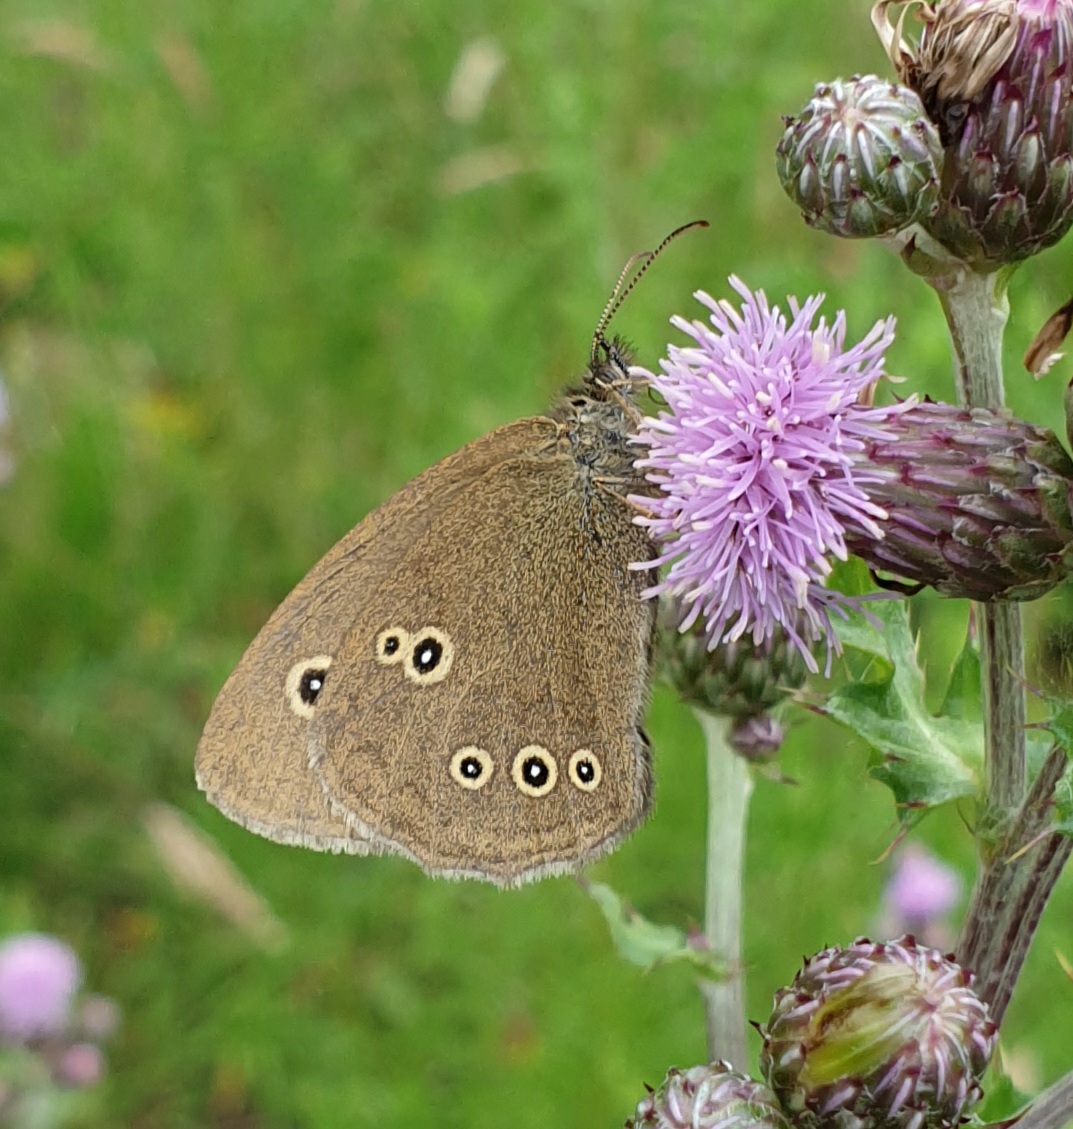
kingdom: Animalia
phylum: Arthropoda
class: Insecta
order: Lepidoptera
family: Nymphalidae
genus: Aphantopus
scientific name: Aphantopus hyperantus
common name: Engrandøje
